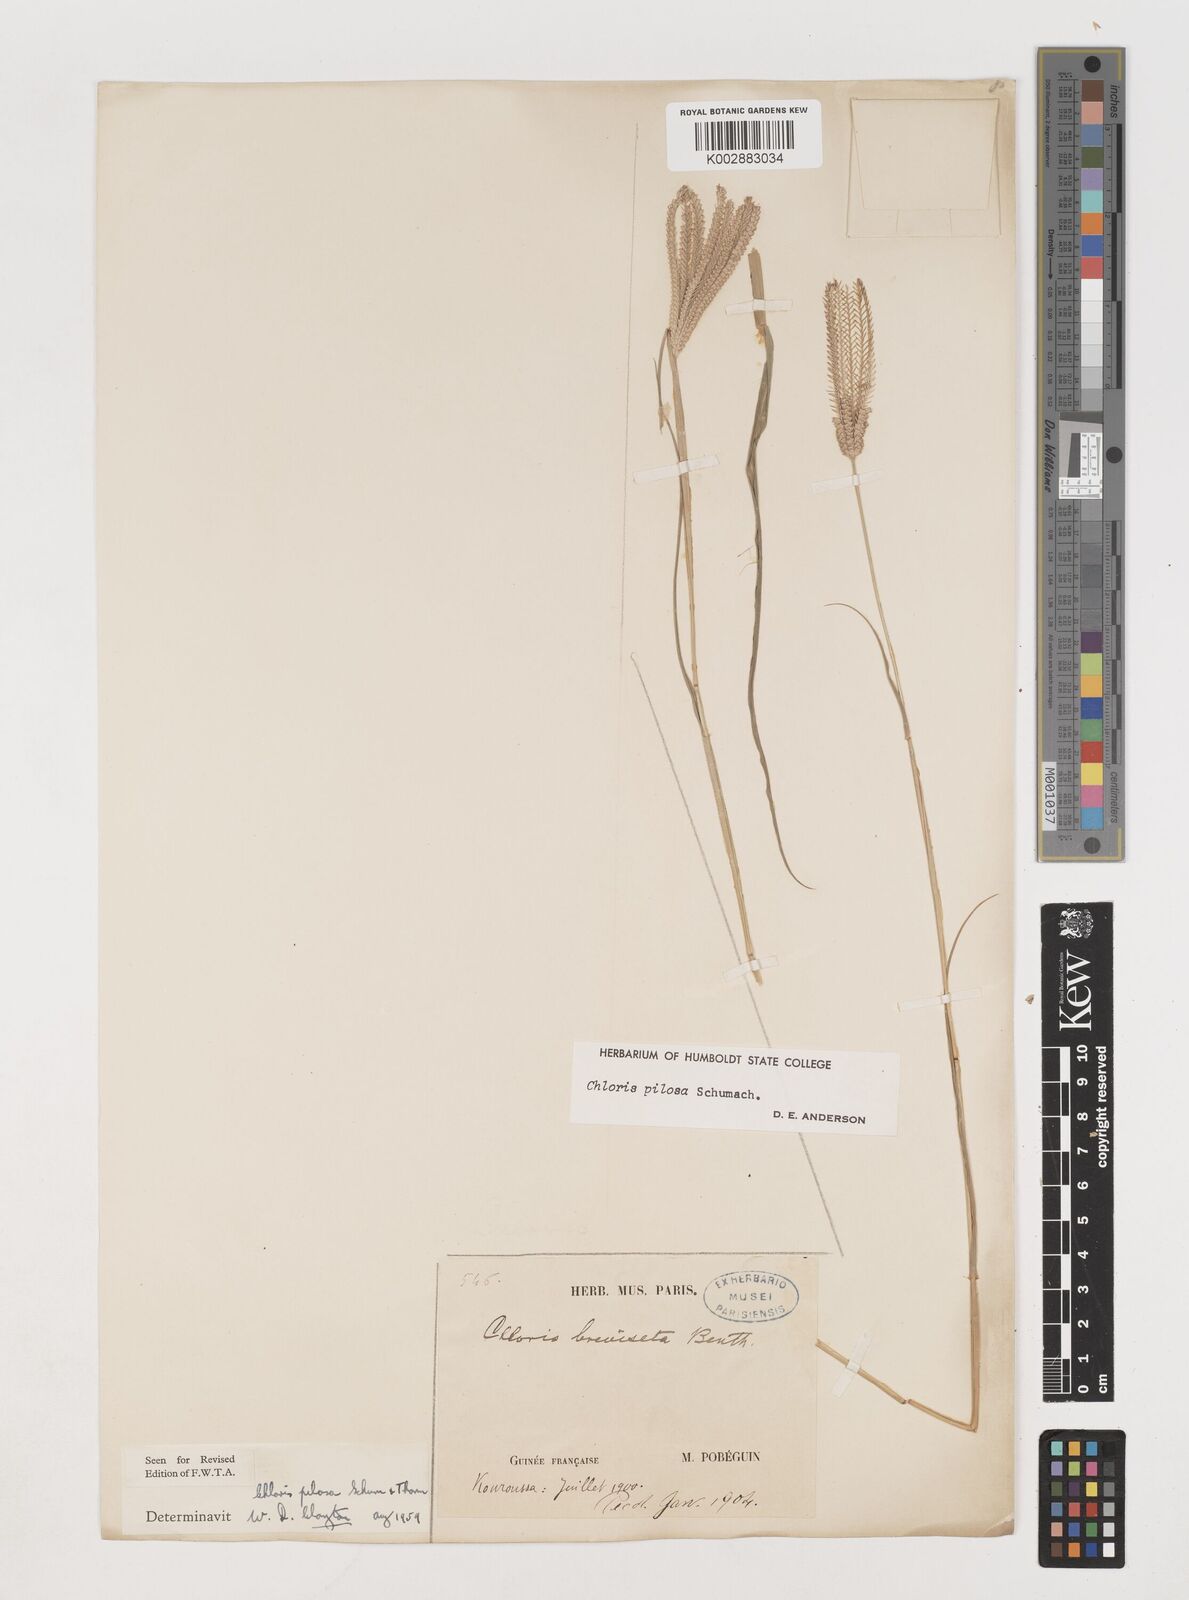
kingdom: Plantae
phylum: Tracheophyta
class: Liliopsida
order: Poales
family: Poaceae
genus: Chloris
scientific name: Chloris pilosa
